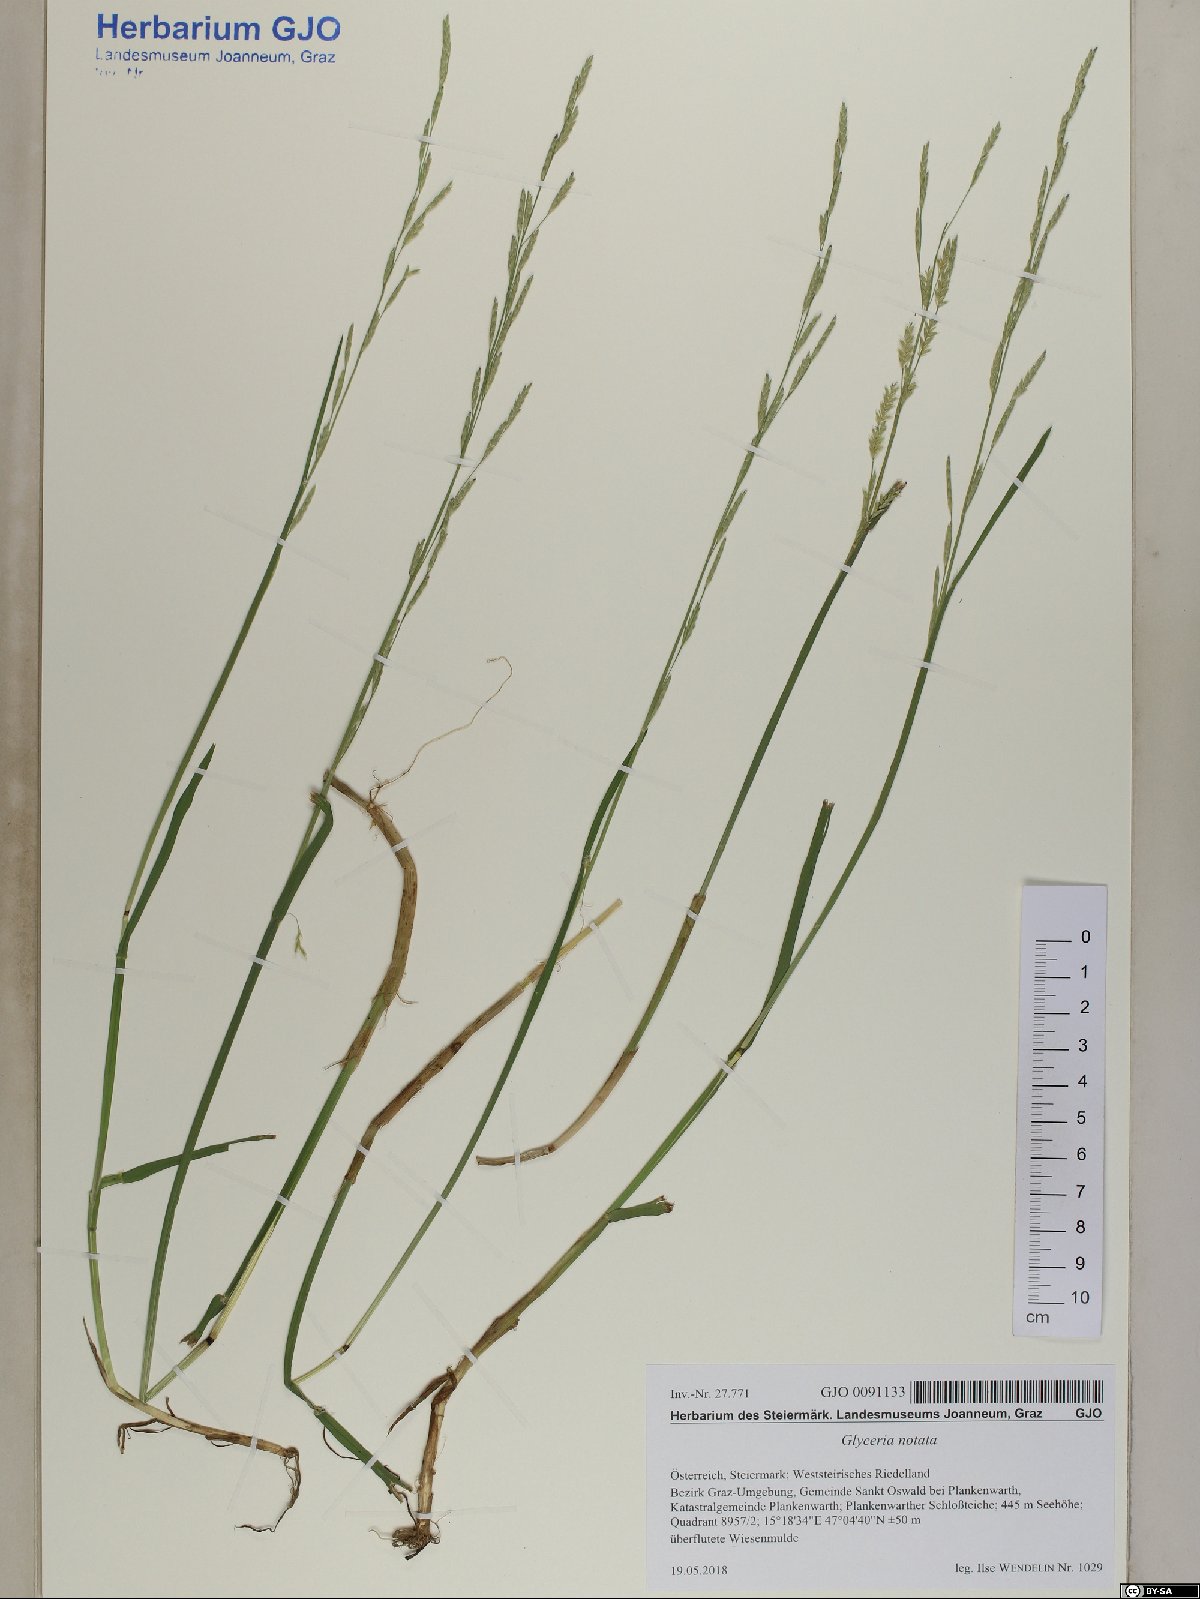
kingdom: Plantae
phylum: Tracheophyta
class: Liliopsida
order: Poales
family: Poaceae
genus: Glyceria
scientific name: Glyceria notata
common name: Plicate sweet-grass
